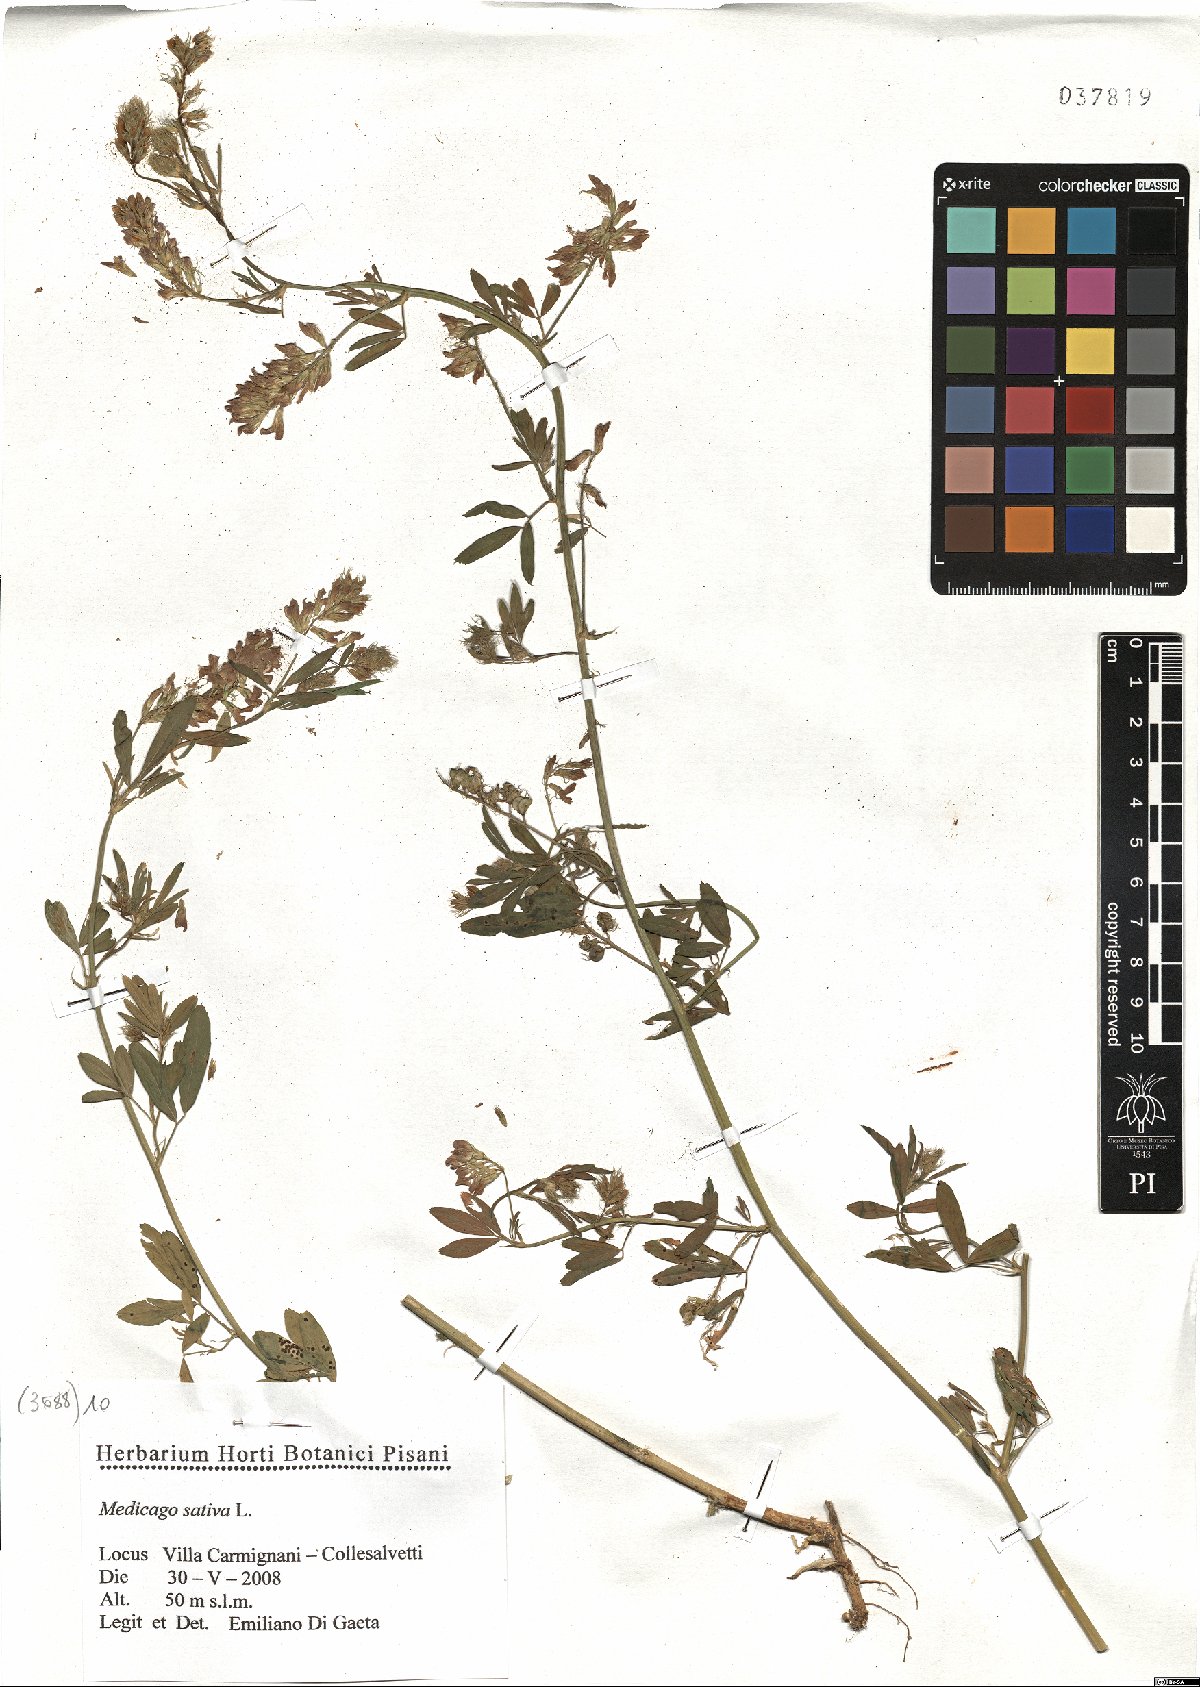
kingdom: Plantae
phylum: Tracheophyta
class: Magnoliopsida
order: Fabales
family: Fabaceae
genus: Medicago
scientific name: Medicago sativa
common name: Alfalfa
